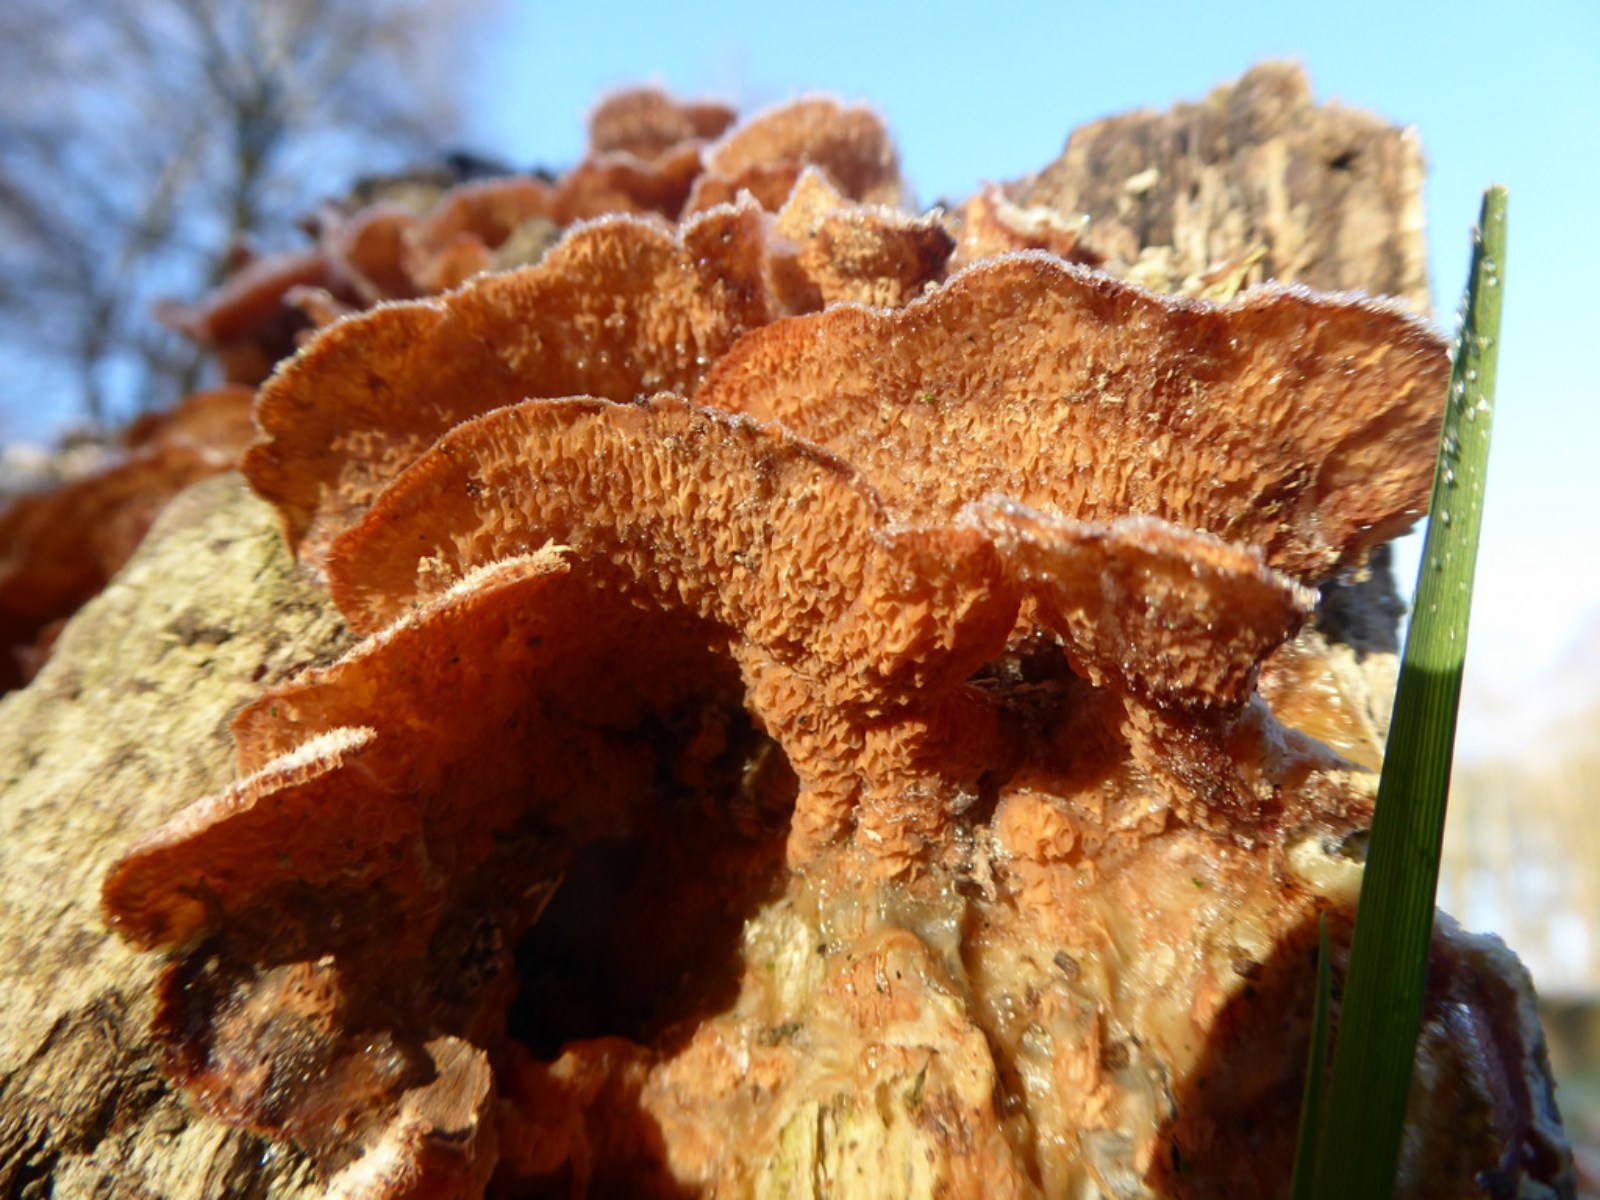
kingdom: Fungi
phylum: Basidiomycota
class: Agaricomycetes
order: Polyporales
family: Meruliaceae
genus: Phlebia
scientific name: Phlebia tremellosa
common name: bævrende åresvamp
